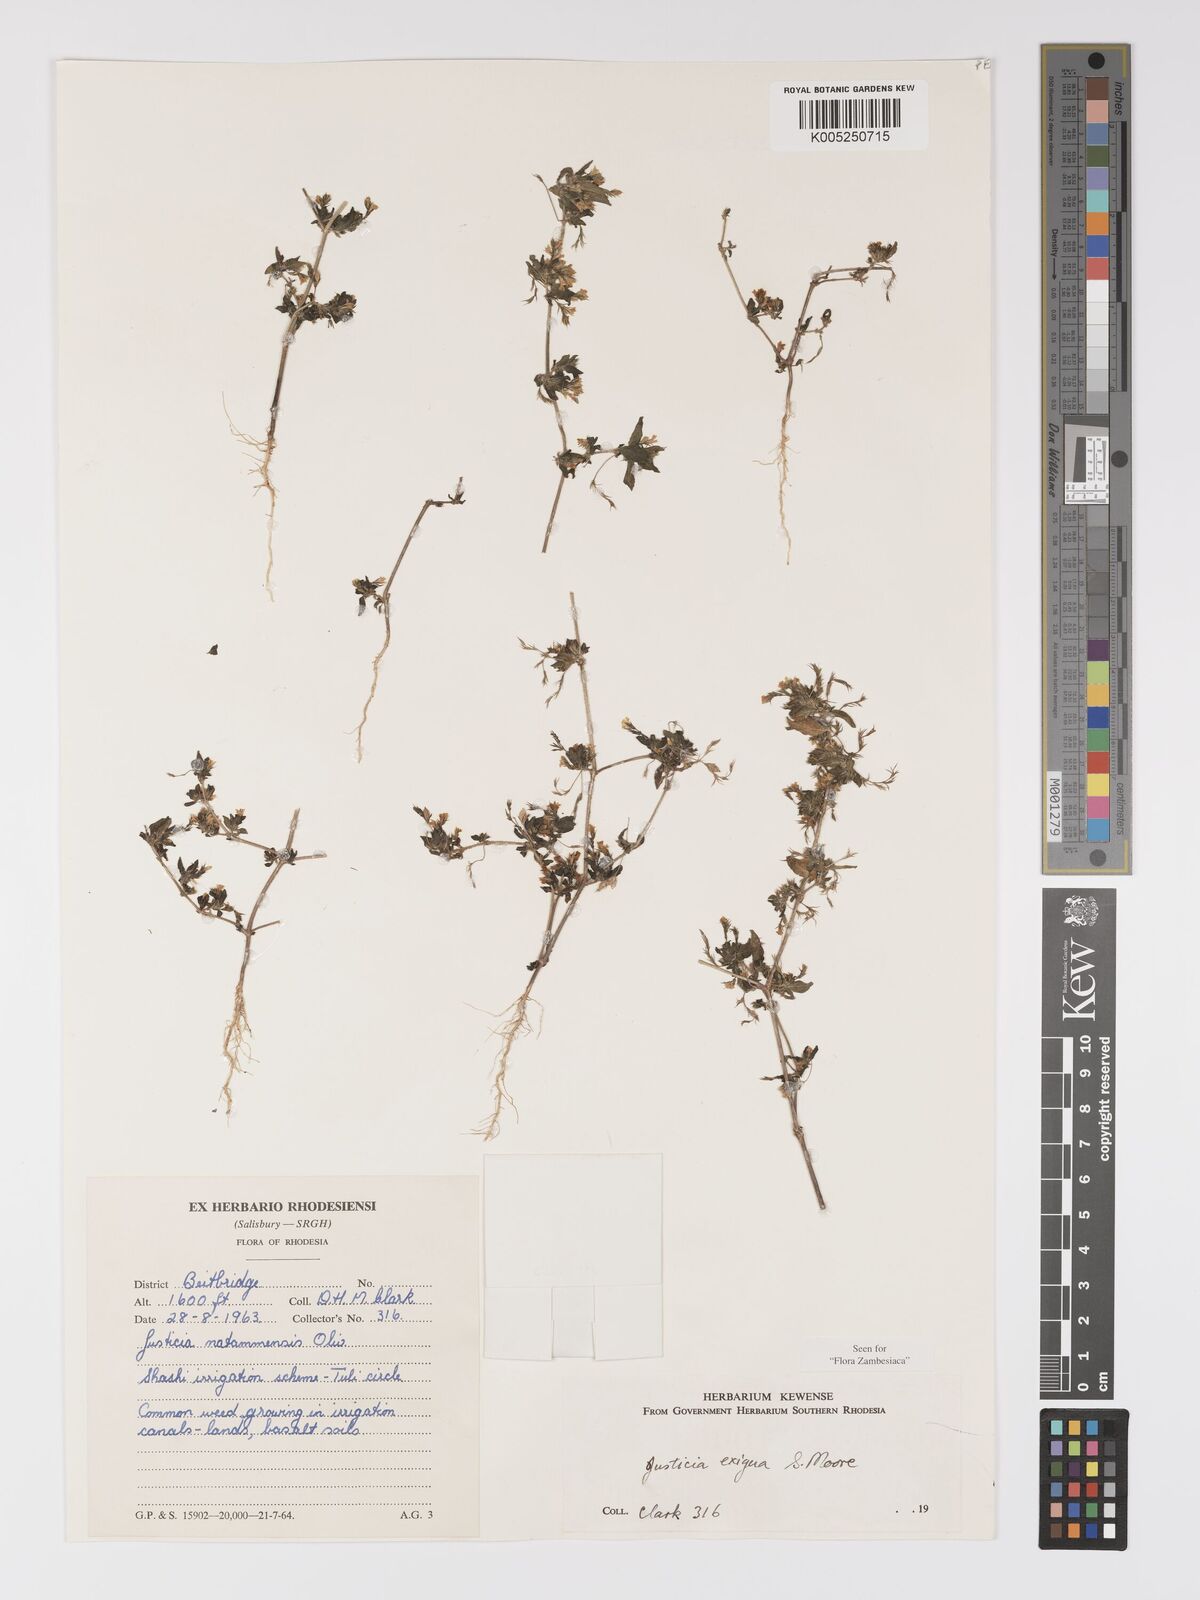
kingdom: Plantae
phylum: Tracheophyta
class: Magnoliopsida
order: Lamiales
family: Acanthaceae
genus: Justicia
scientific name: Justicia exigua
